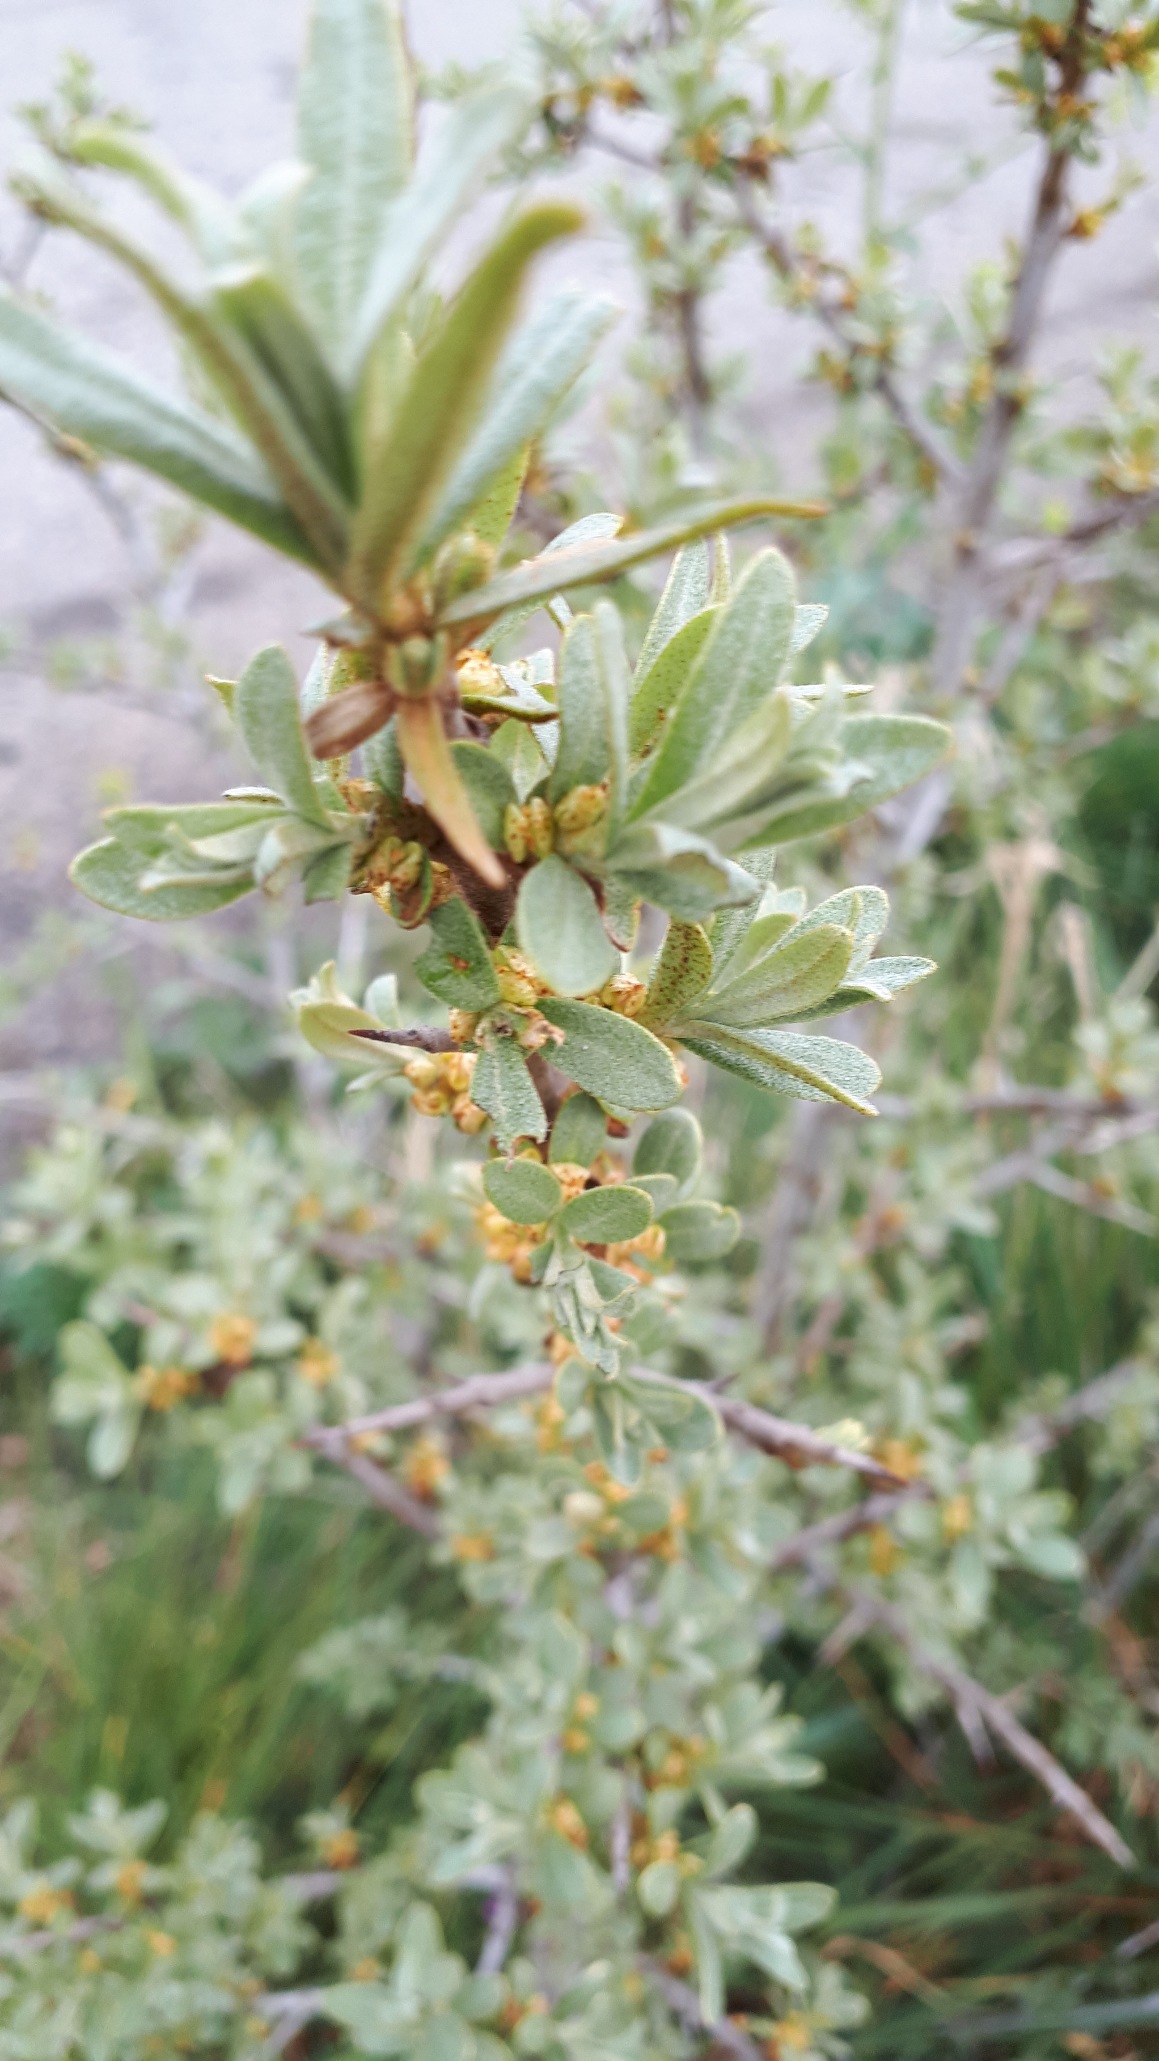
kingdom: Plantae
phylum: Tracheophyta
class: Magnoliopsida
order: Rosales
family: Elaeagnaceae
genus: Hippophae
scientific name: Hippophae rhamnoides
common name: Havtorn
